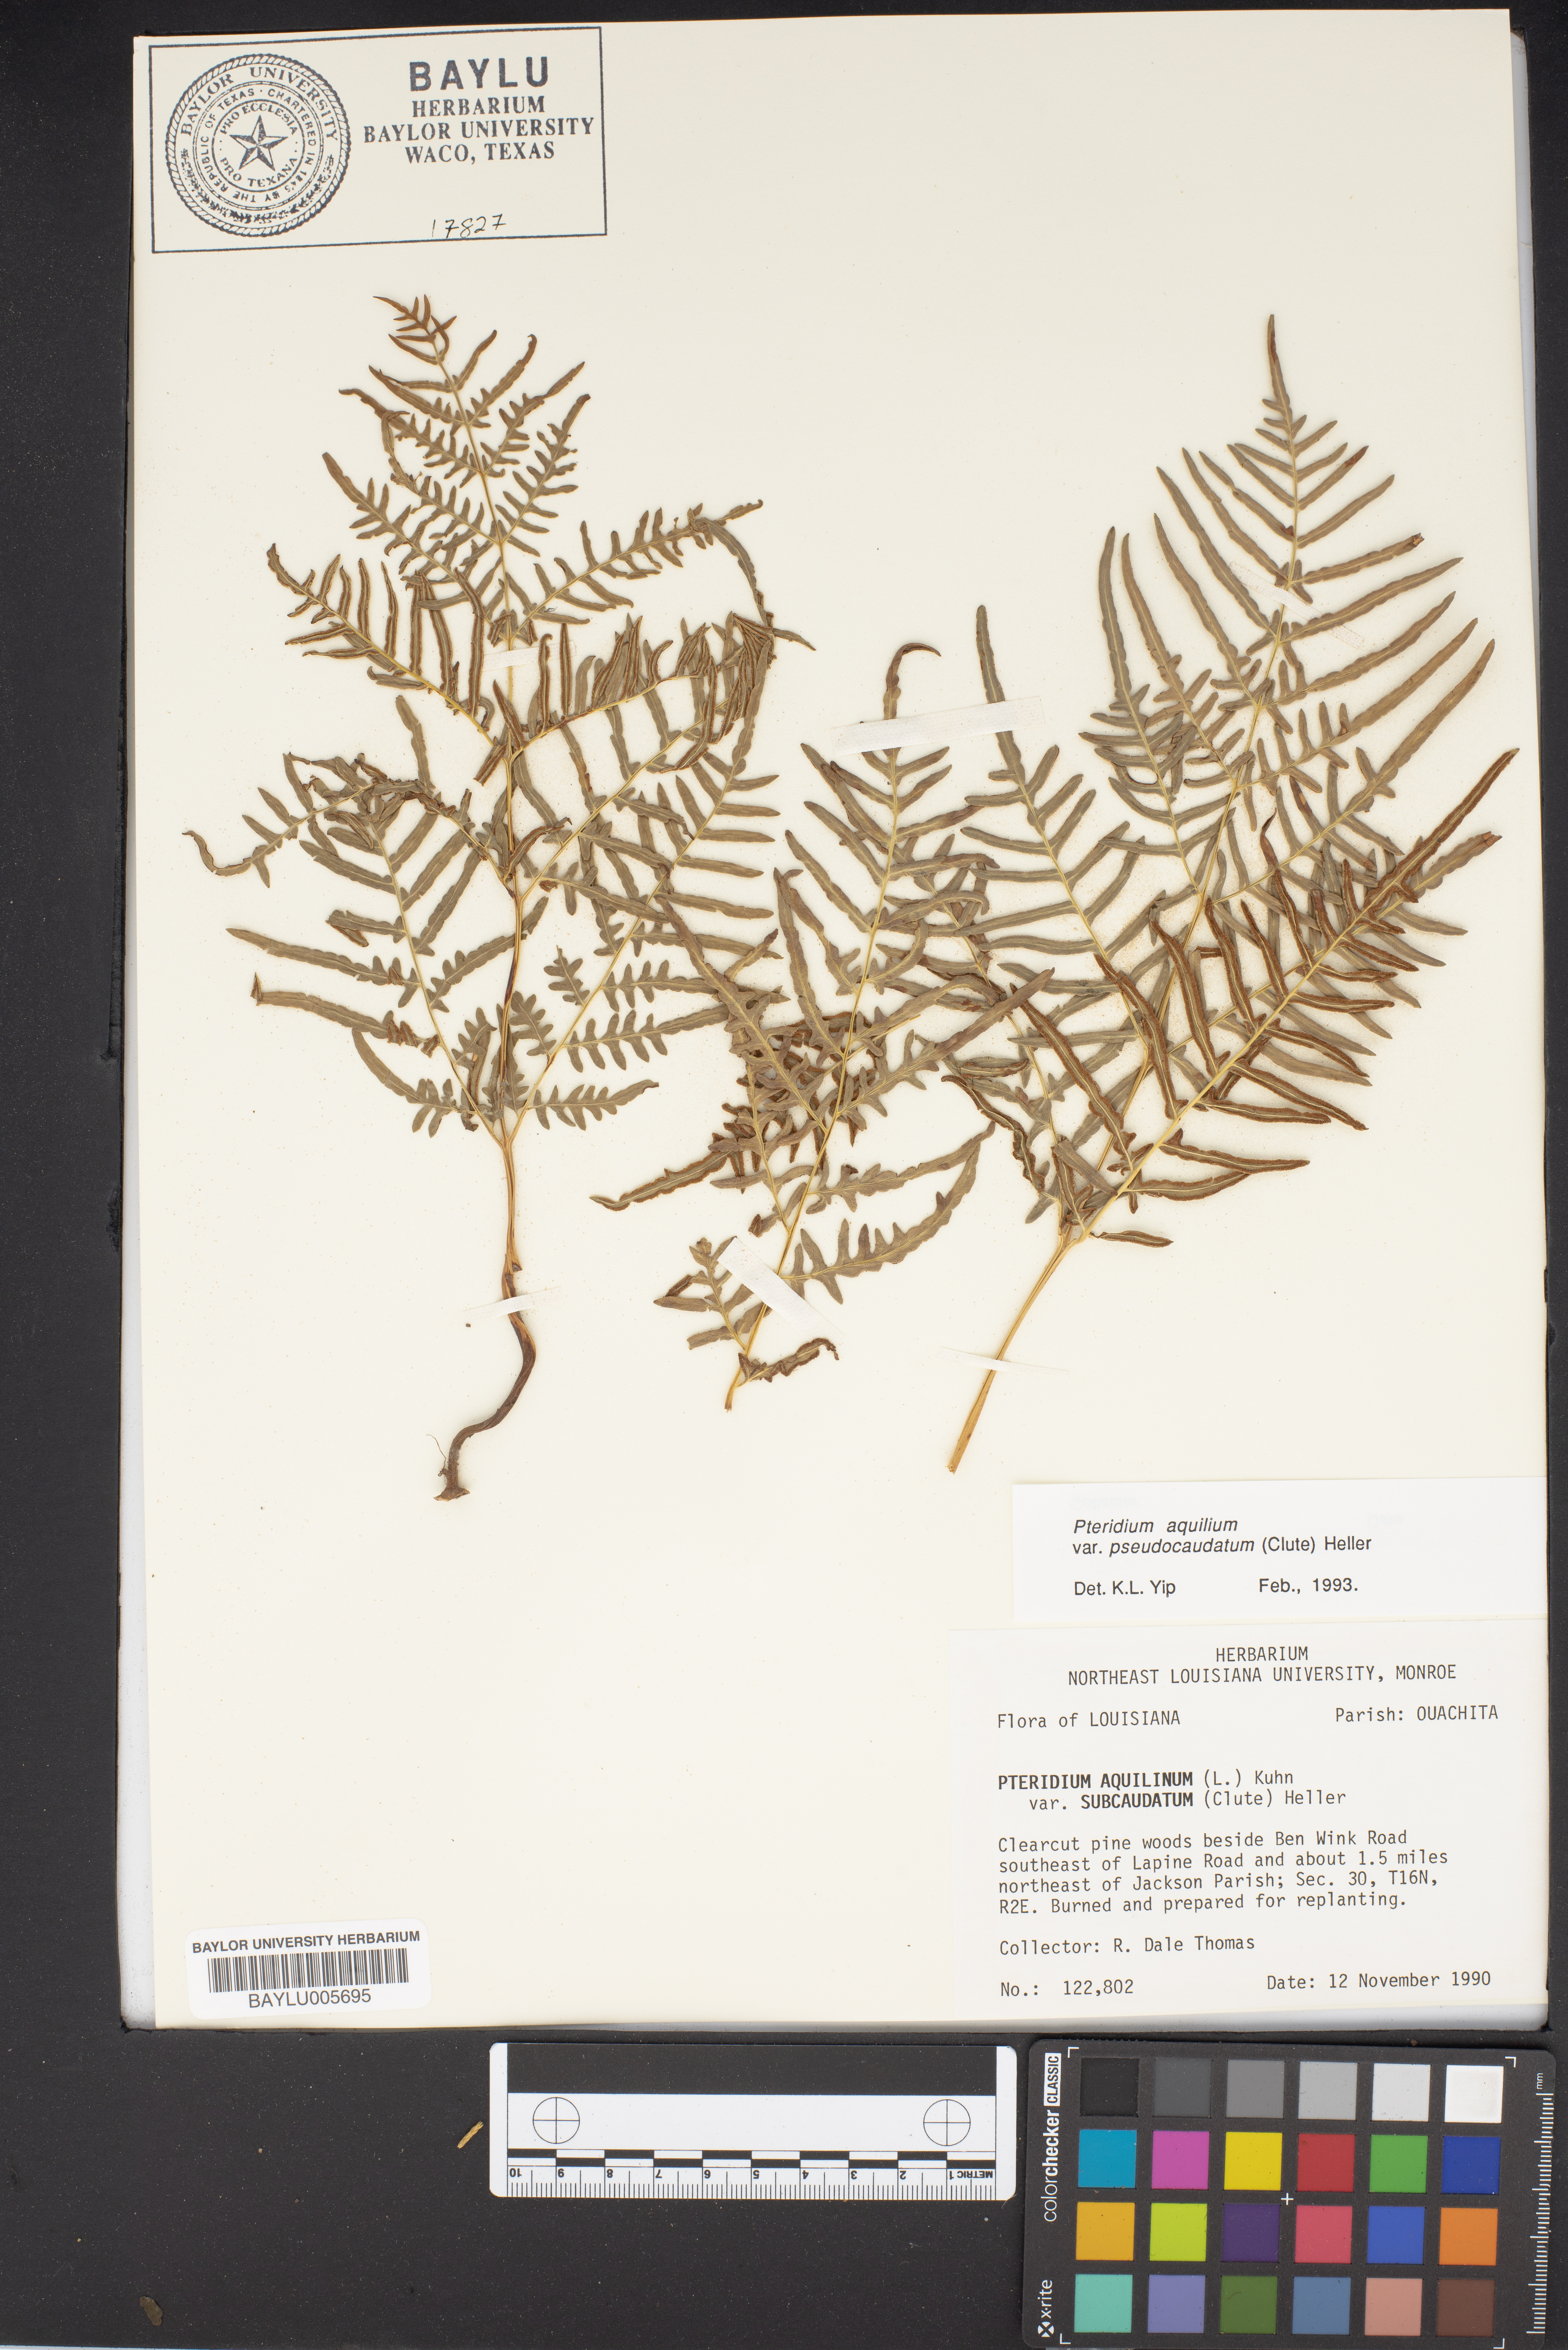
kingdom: Plantae
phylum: Tracheophyta
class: Polypodiopsida
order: Polypodiales
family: Dennstaedtiaceae
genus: Pteridium
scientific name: Pteridium aquilinum
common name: Bracken
